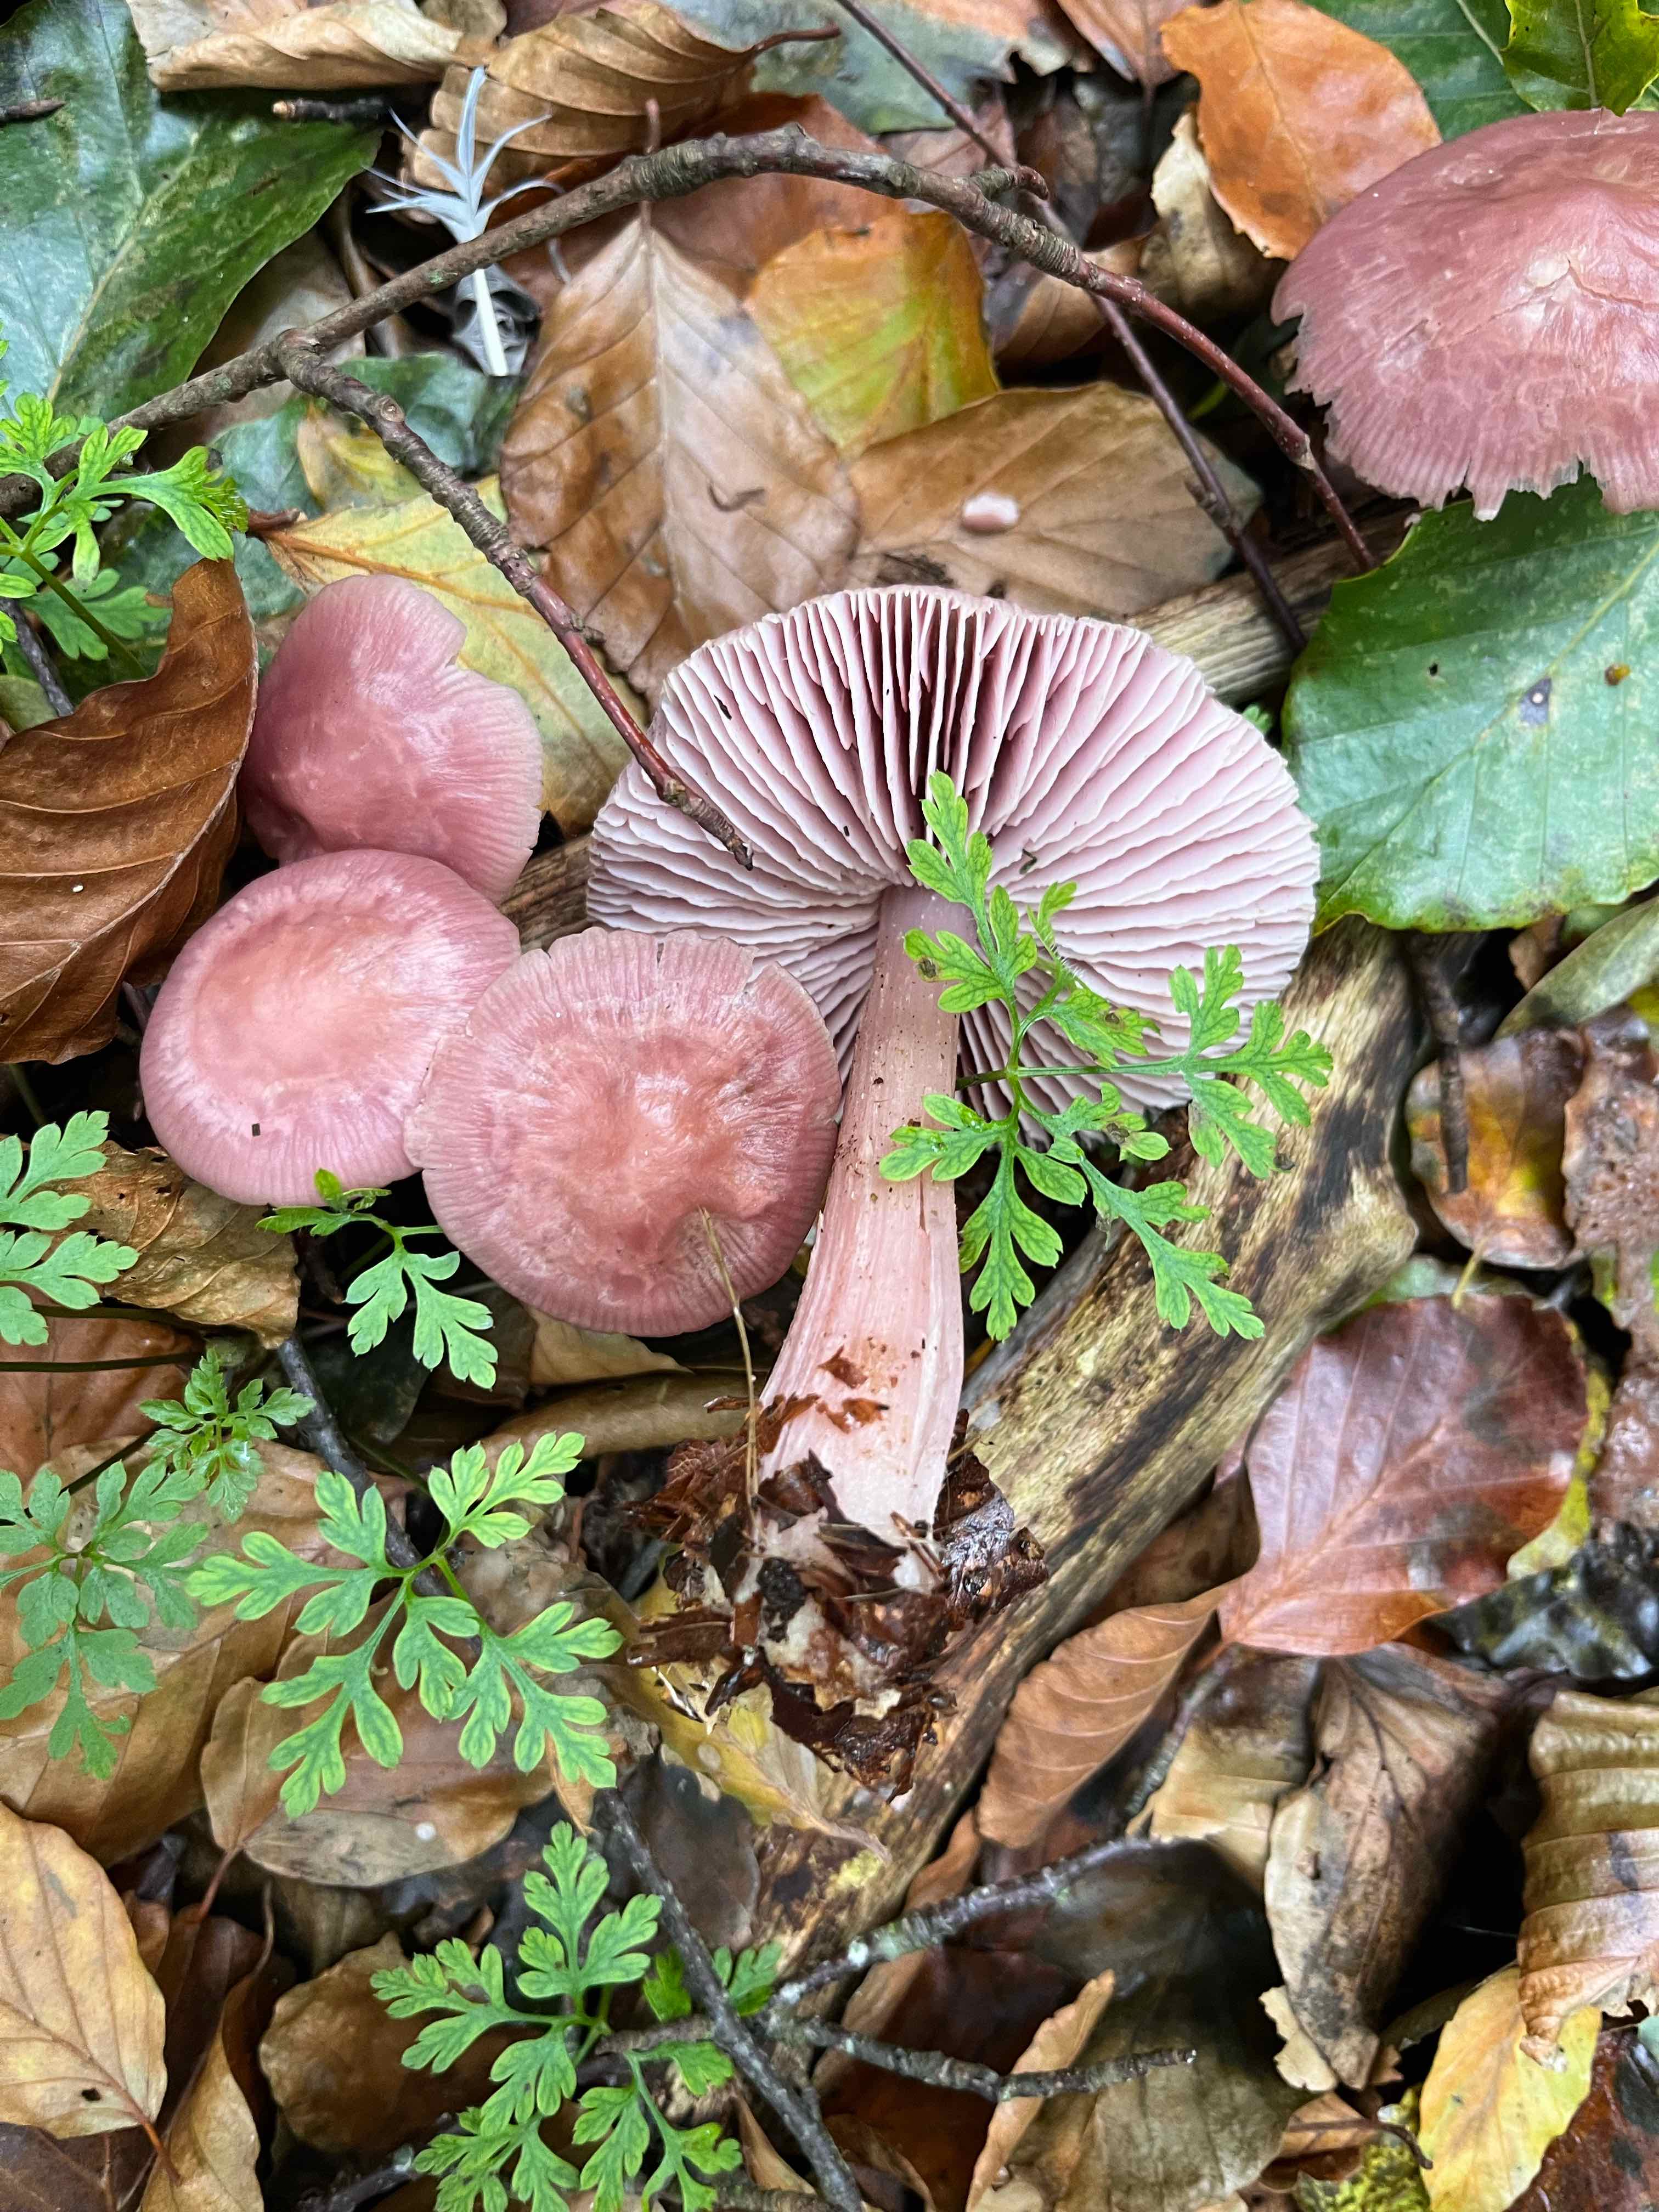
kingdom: Fungi
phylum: Basidiomycota
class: Agaricomycetes
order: Agaricales
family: Mycenaceae
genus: Mycena
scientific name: Mycena rosea
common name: rosa huesvamp
